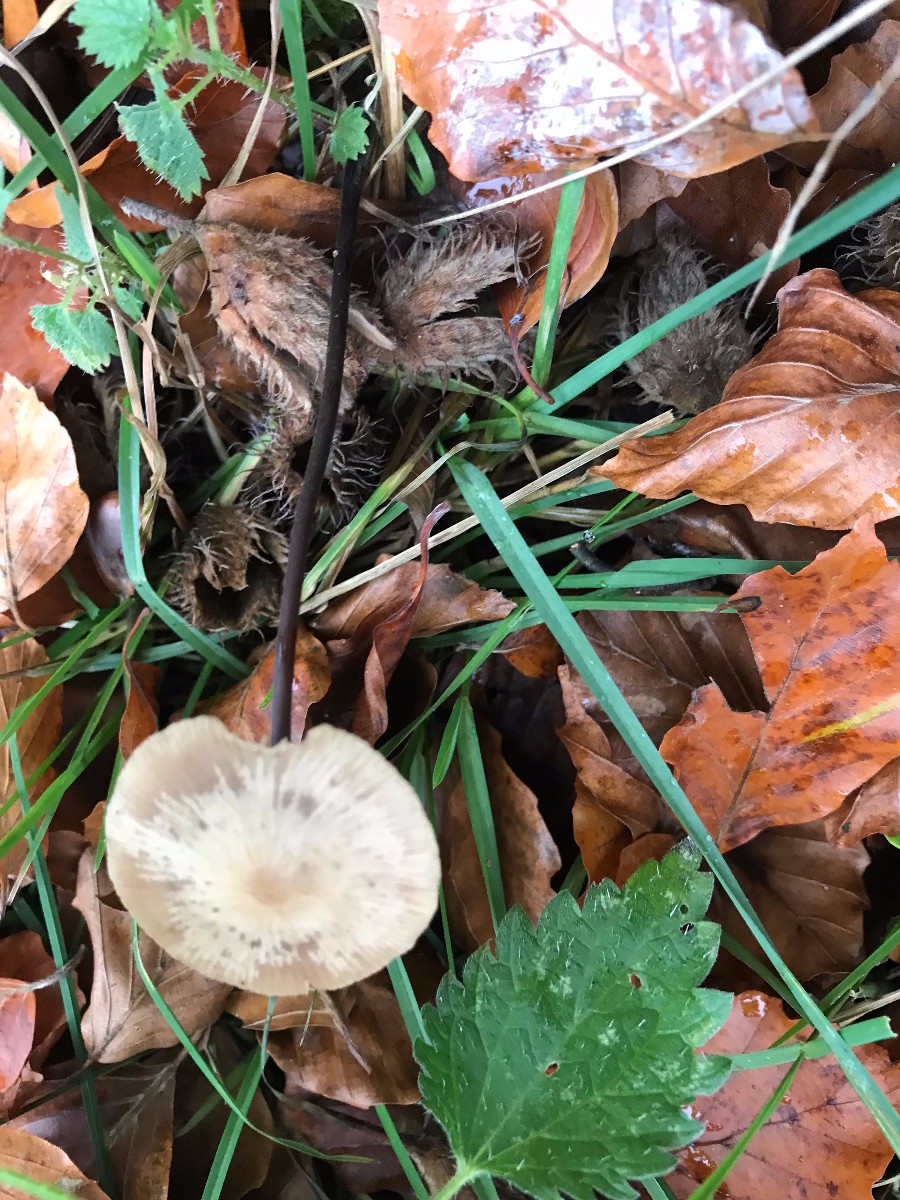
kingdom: Fungi
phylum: Basidiomycota
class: Agaricomycetes
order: Agaricales
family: Omphalotaceae
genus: Mycetinis
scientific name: Mycetinis alliaceus
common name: stor løghat
